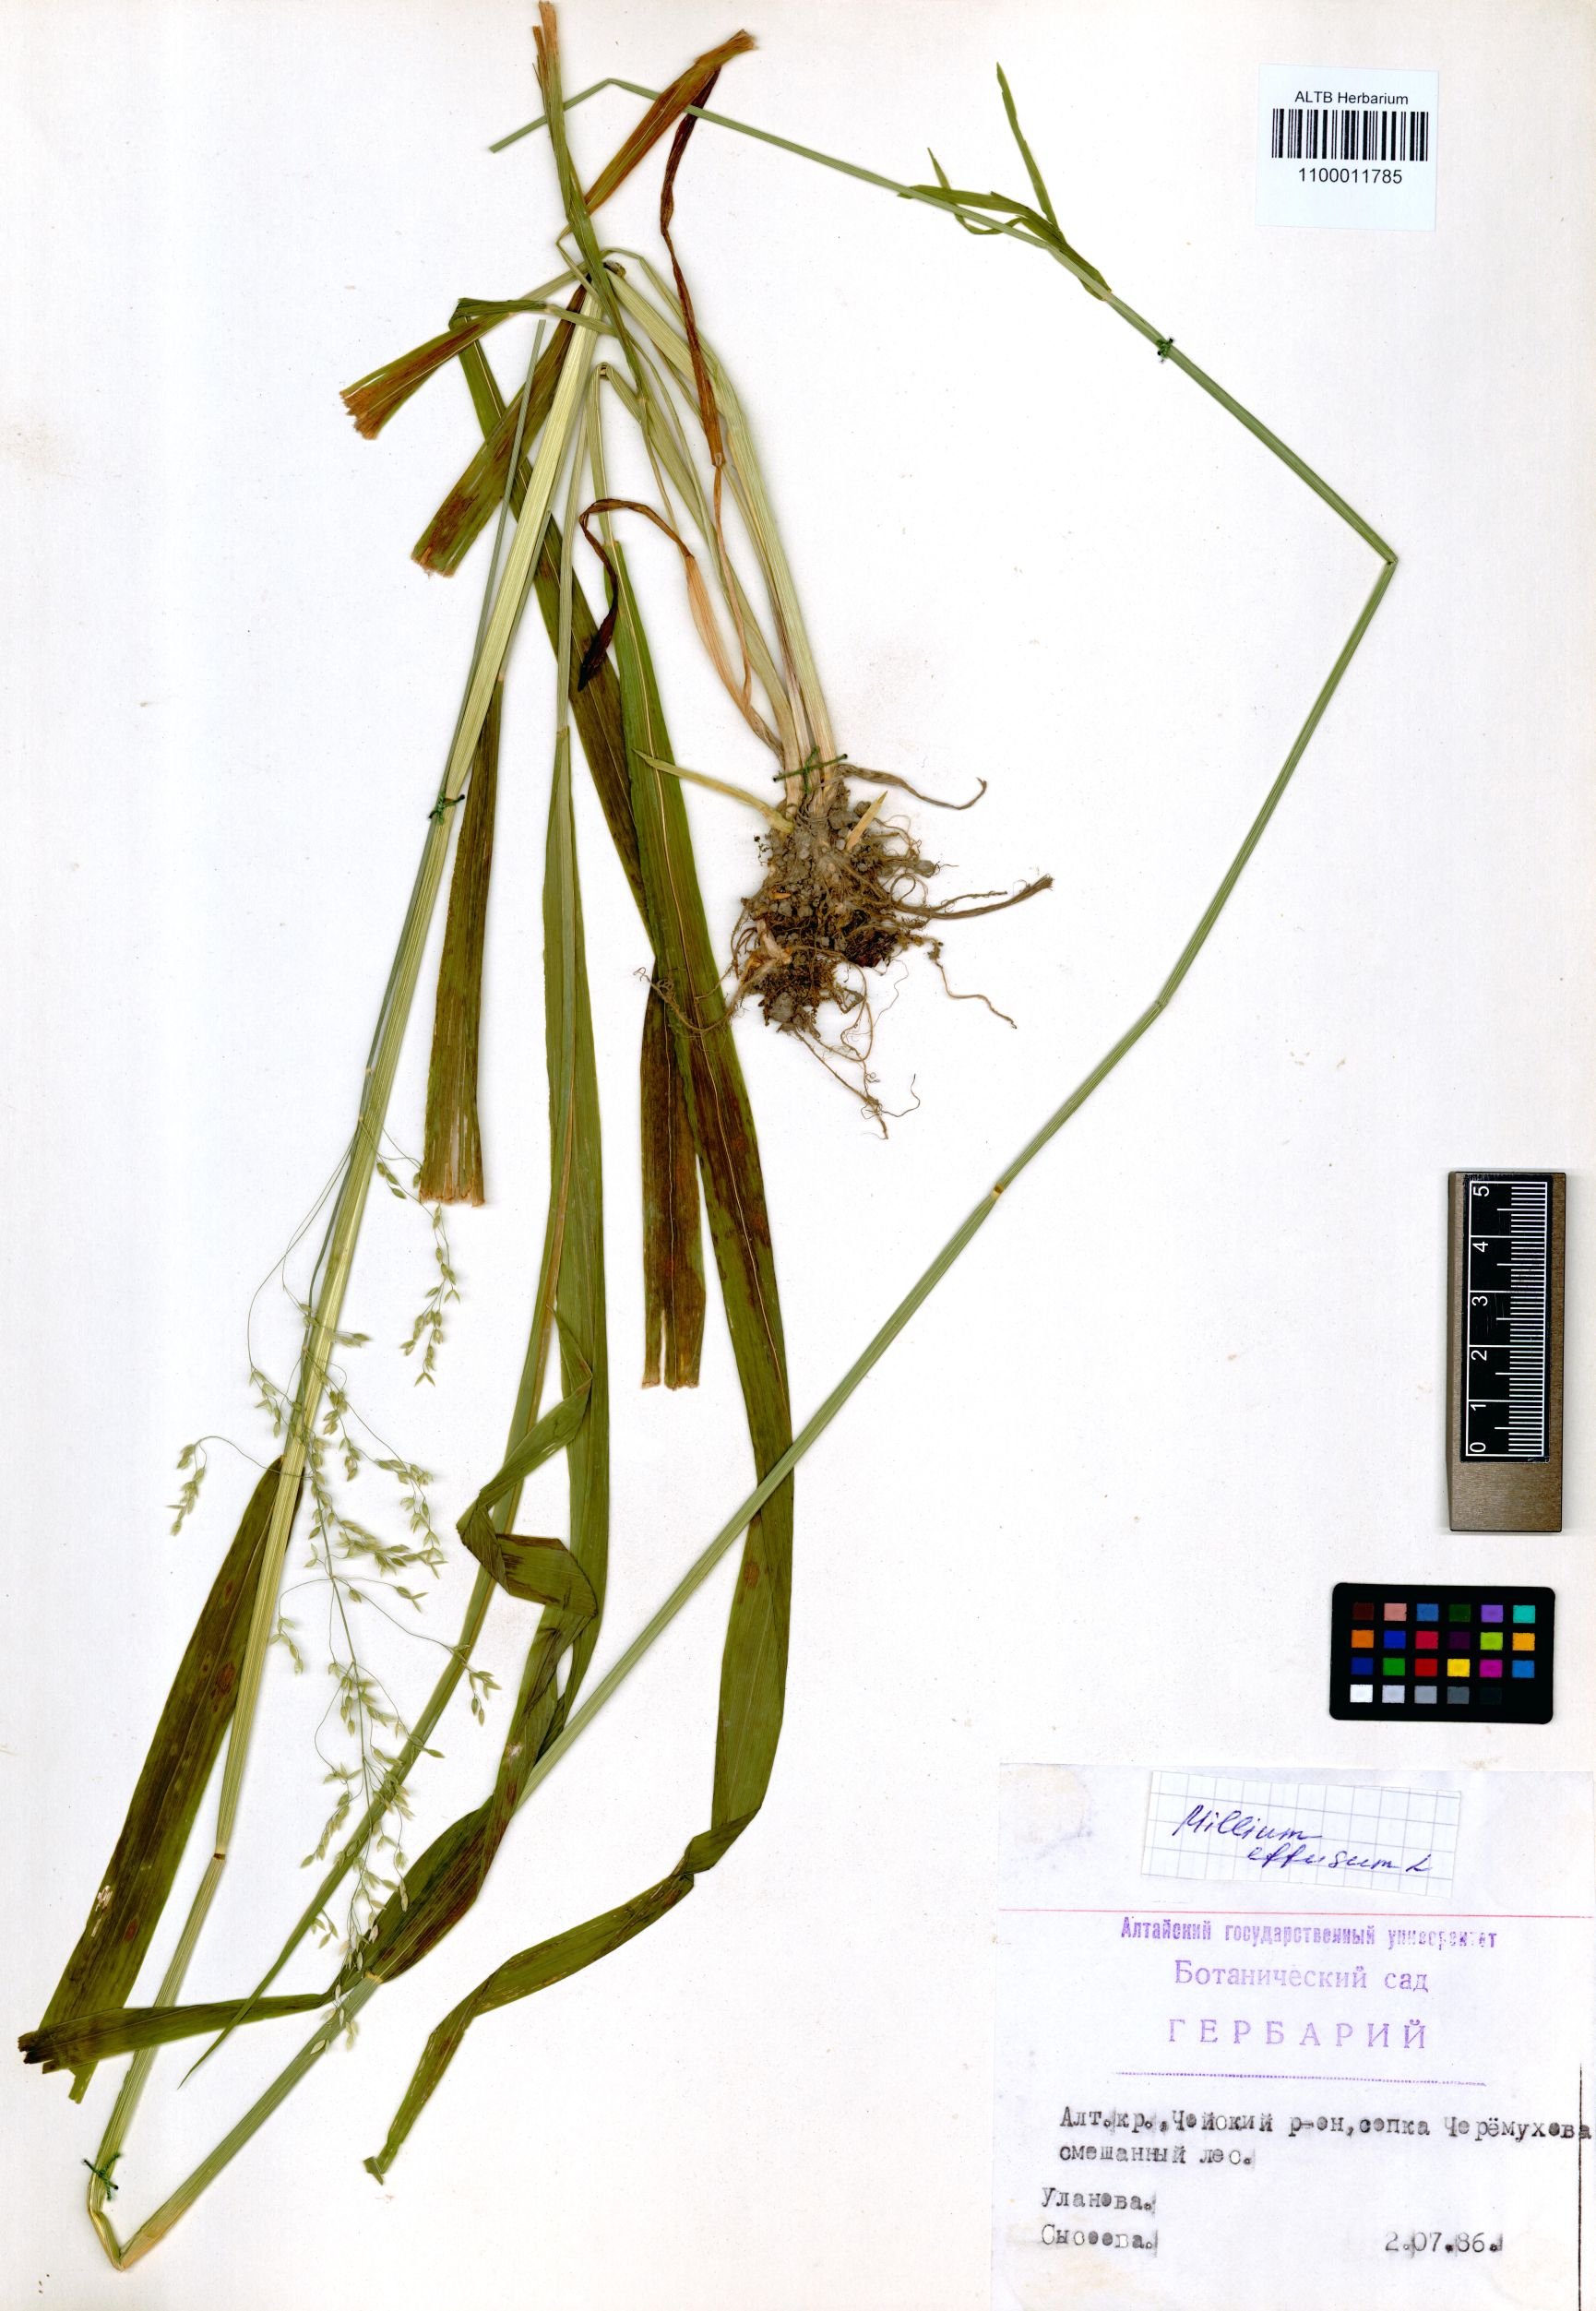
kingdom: Plantae
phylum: Tracheophyta
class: Liliopsida
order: Poales
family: Poaceae
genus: Milium
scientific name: Milium effusum
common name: Wood millet
